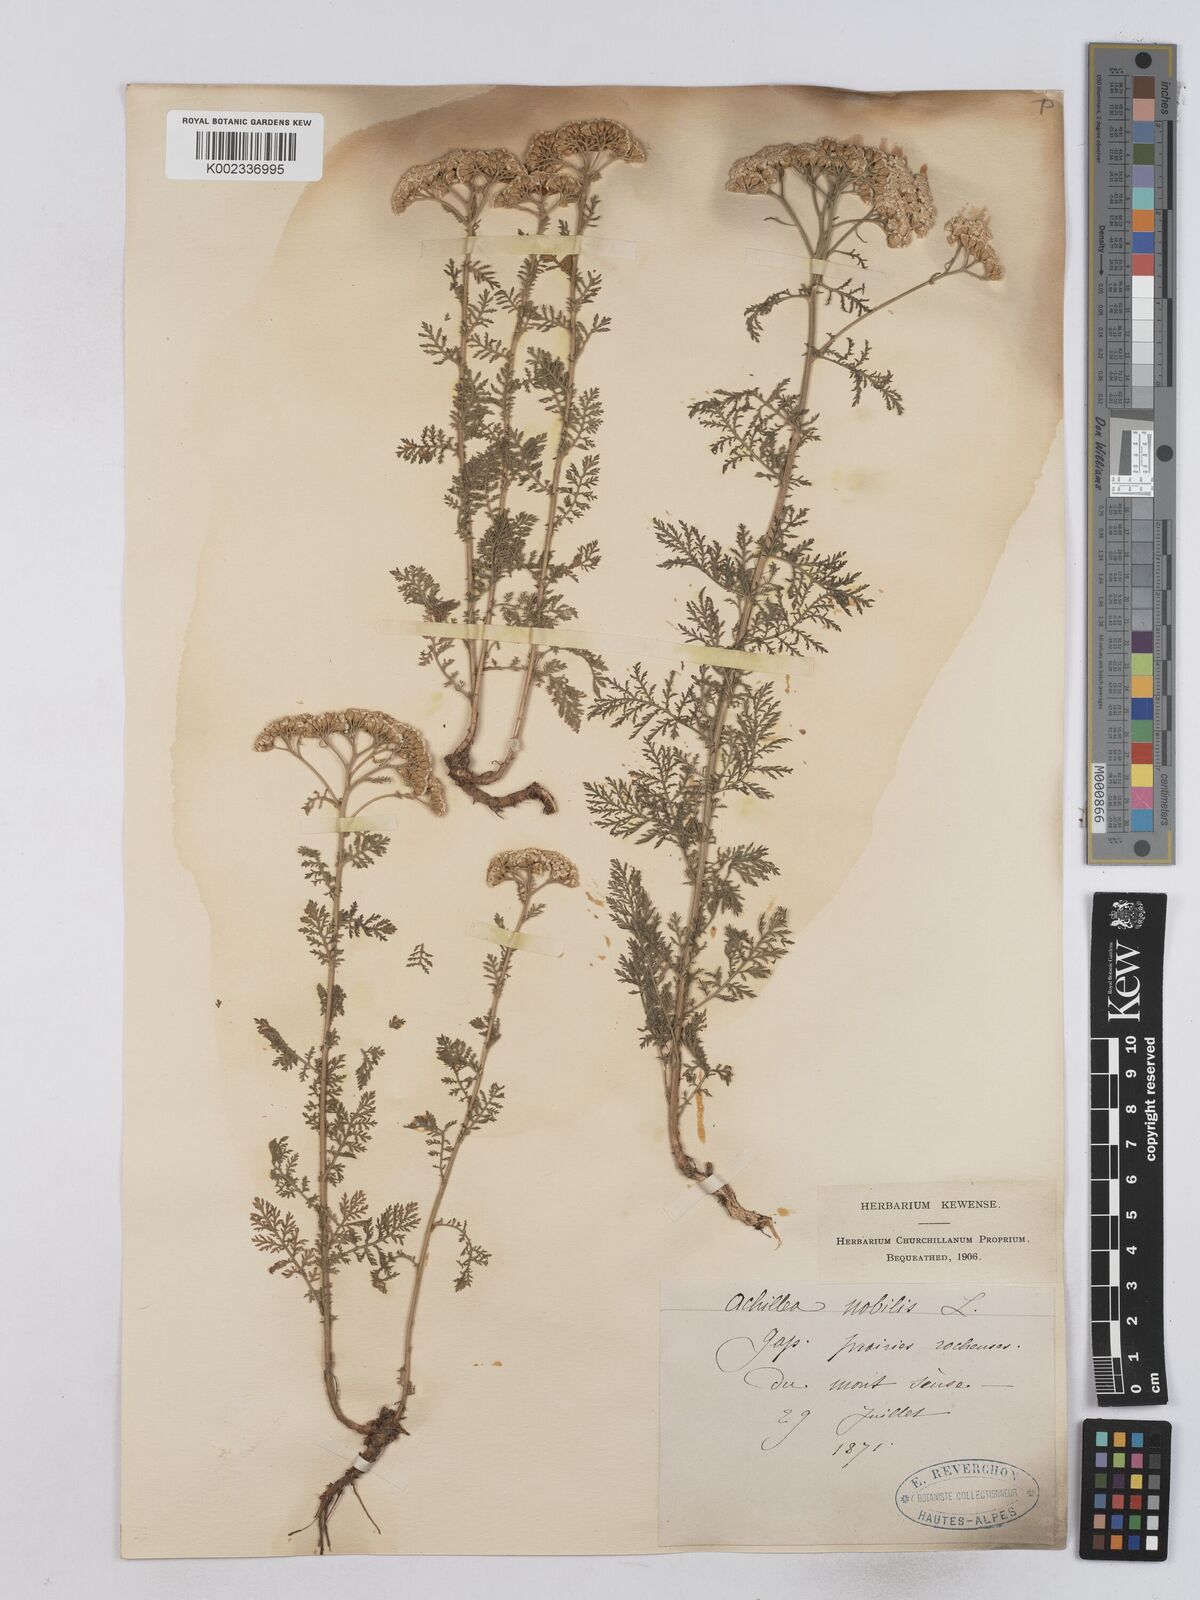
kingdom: Plantae
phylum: Tracheophyta
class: Magnoliopsida
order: Asterales
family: Asteraceae
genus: Achillea
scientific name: Achillea nobilis
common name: Noble yarrow
